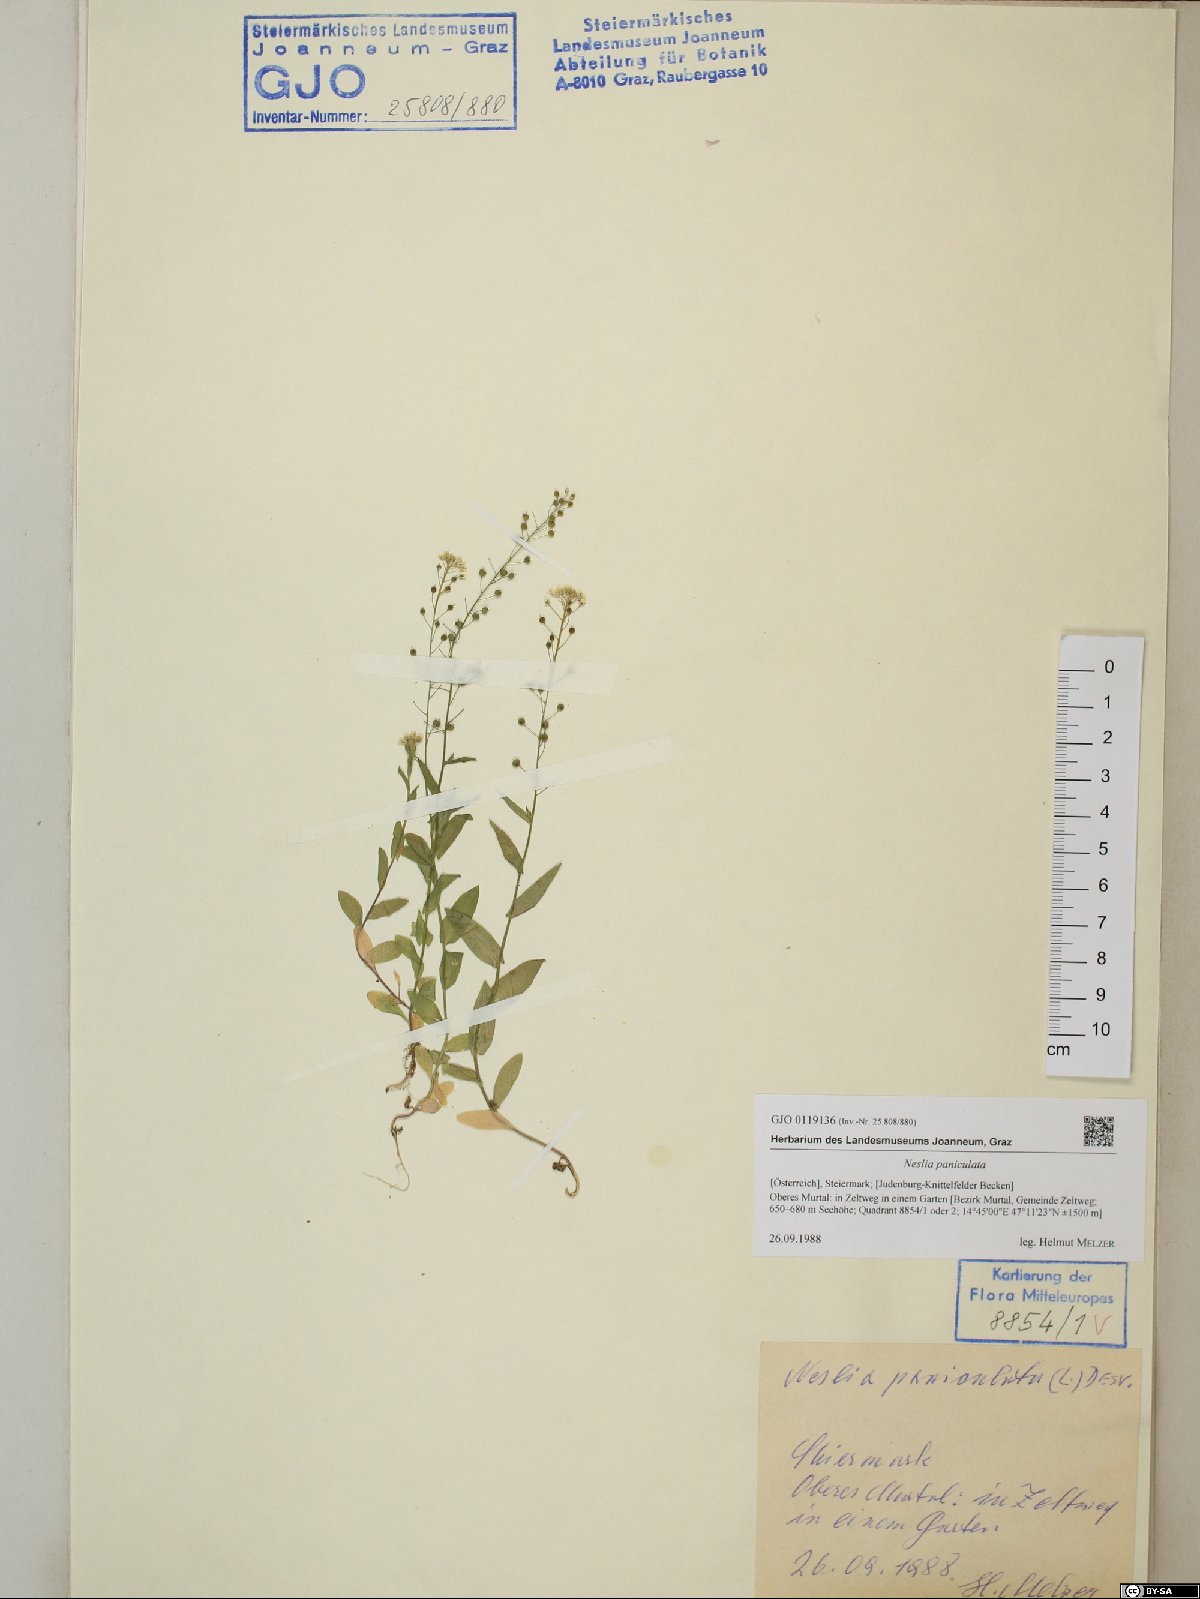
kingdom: Plantae
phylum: Tracheophyta
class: Magnoliopsida
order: Brassicales
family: Brassicaceae
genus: Neslia
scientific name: Neslia paniculata
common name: Ball mustard
